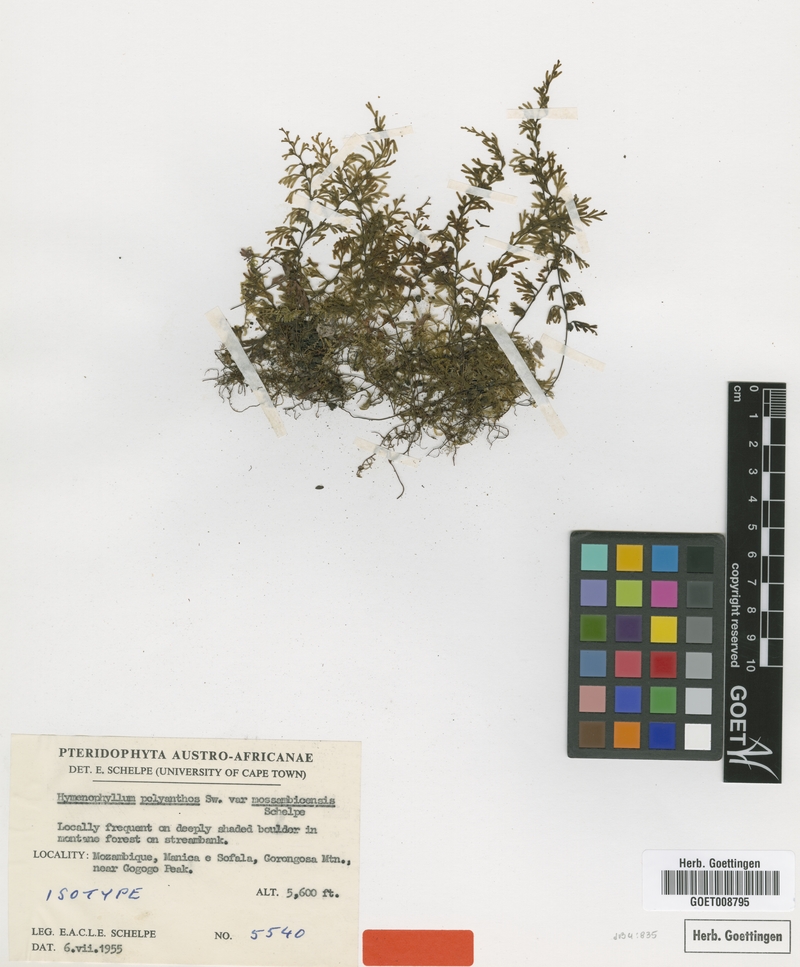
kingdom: Plantae
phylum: Tracheophyta
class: Polypodiopsida
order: Hymenophyllales
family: Hymenophyllaceae
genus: Hymenophyllum
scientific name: Hymenophyllum polyanthos
